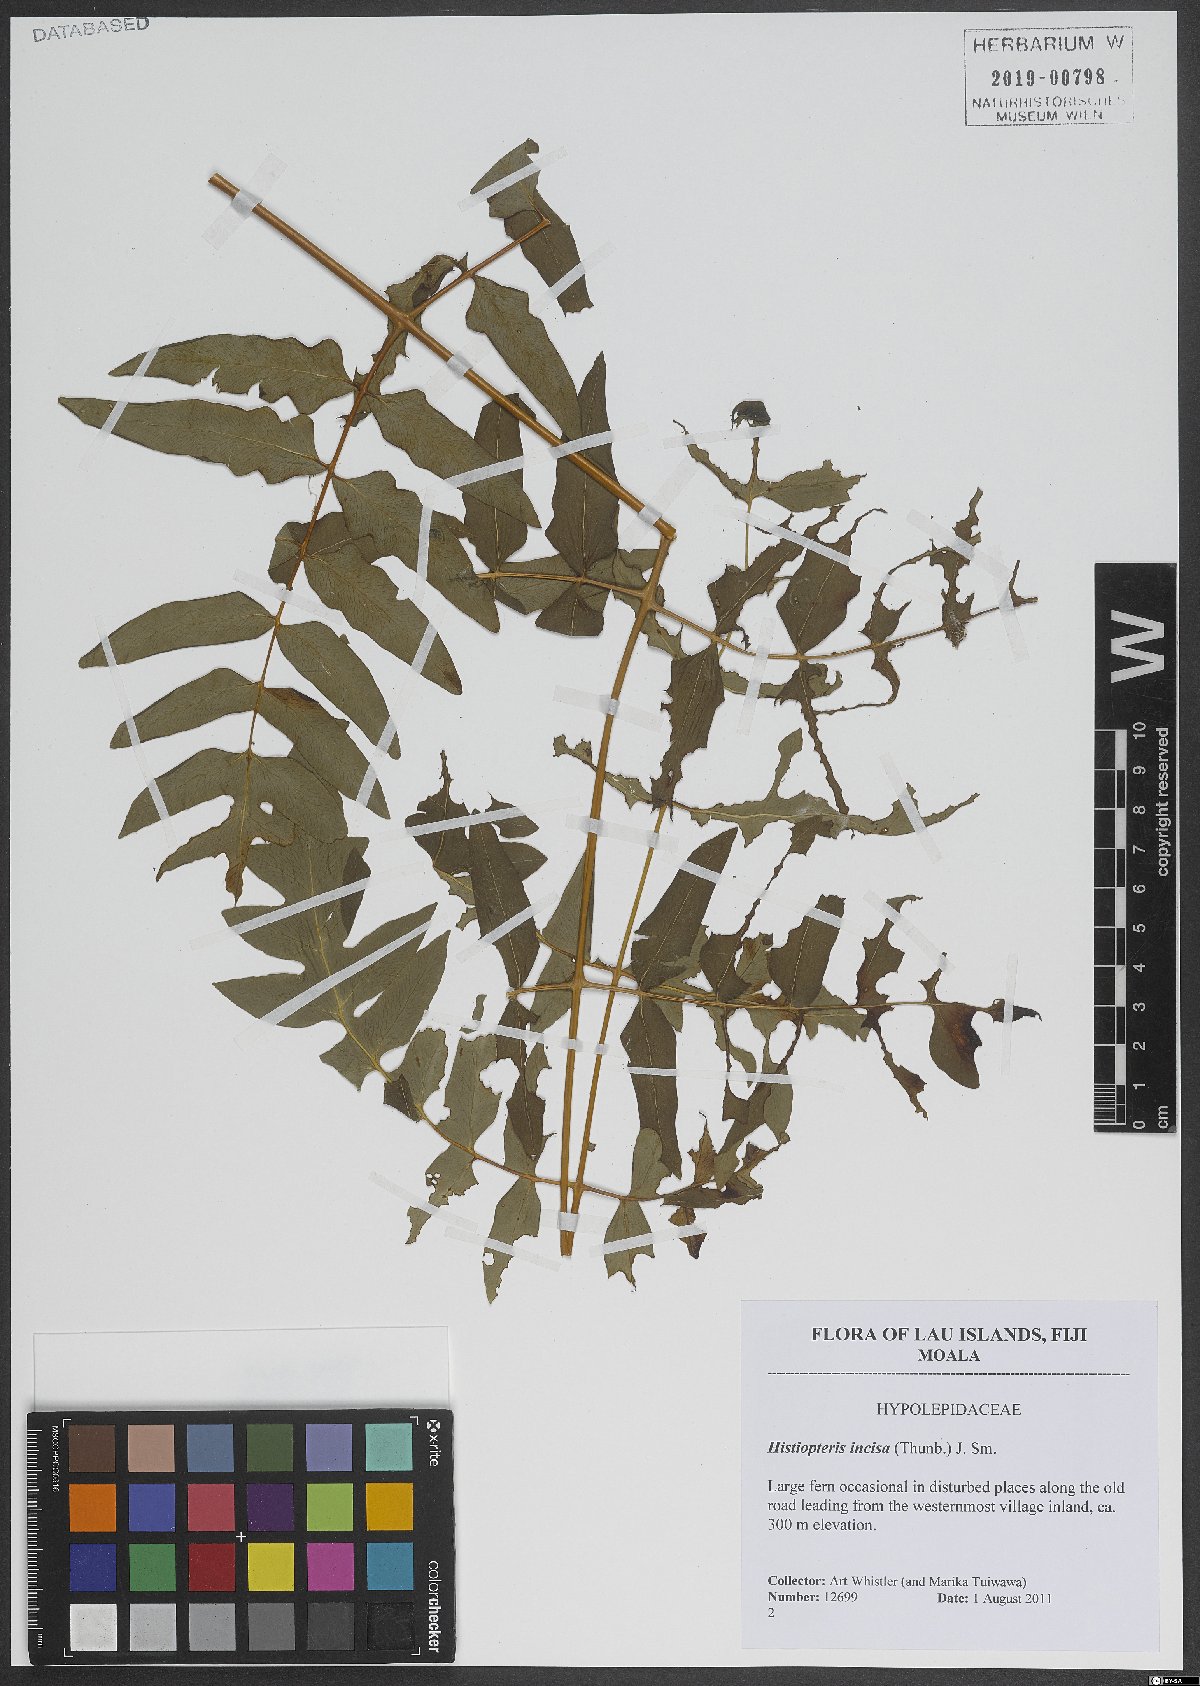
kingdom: Plantae
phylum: Tracheophyta
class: Polypodiopsida
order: Polypodiales
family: Dennstaedtiaceae
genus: Histiopteris
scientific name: Histiopteris incisa
